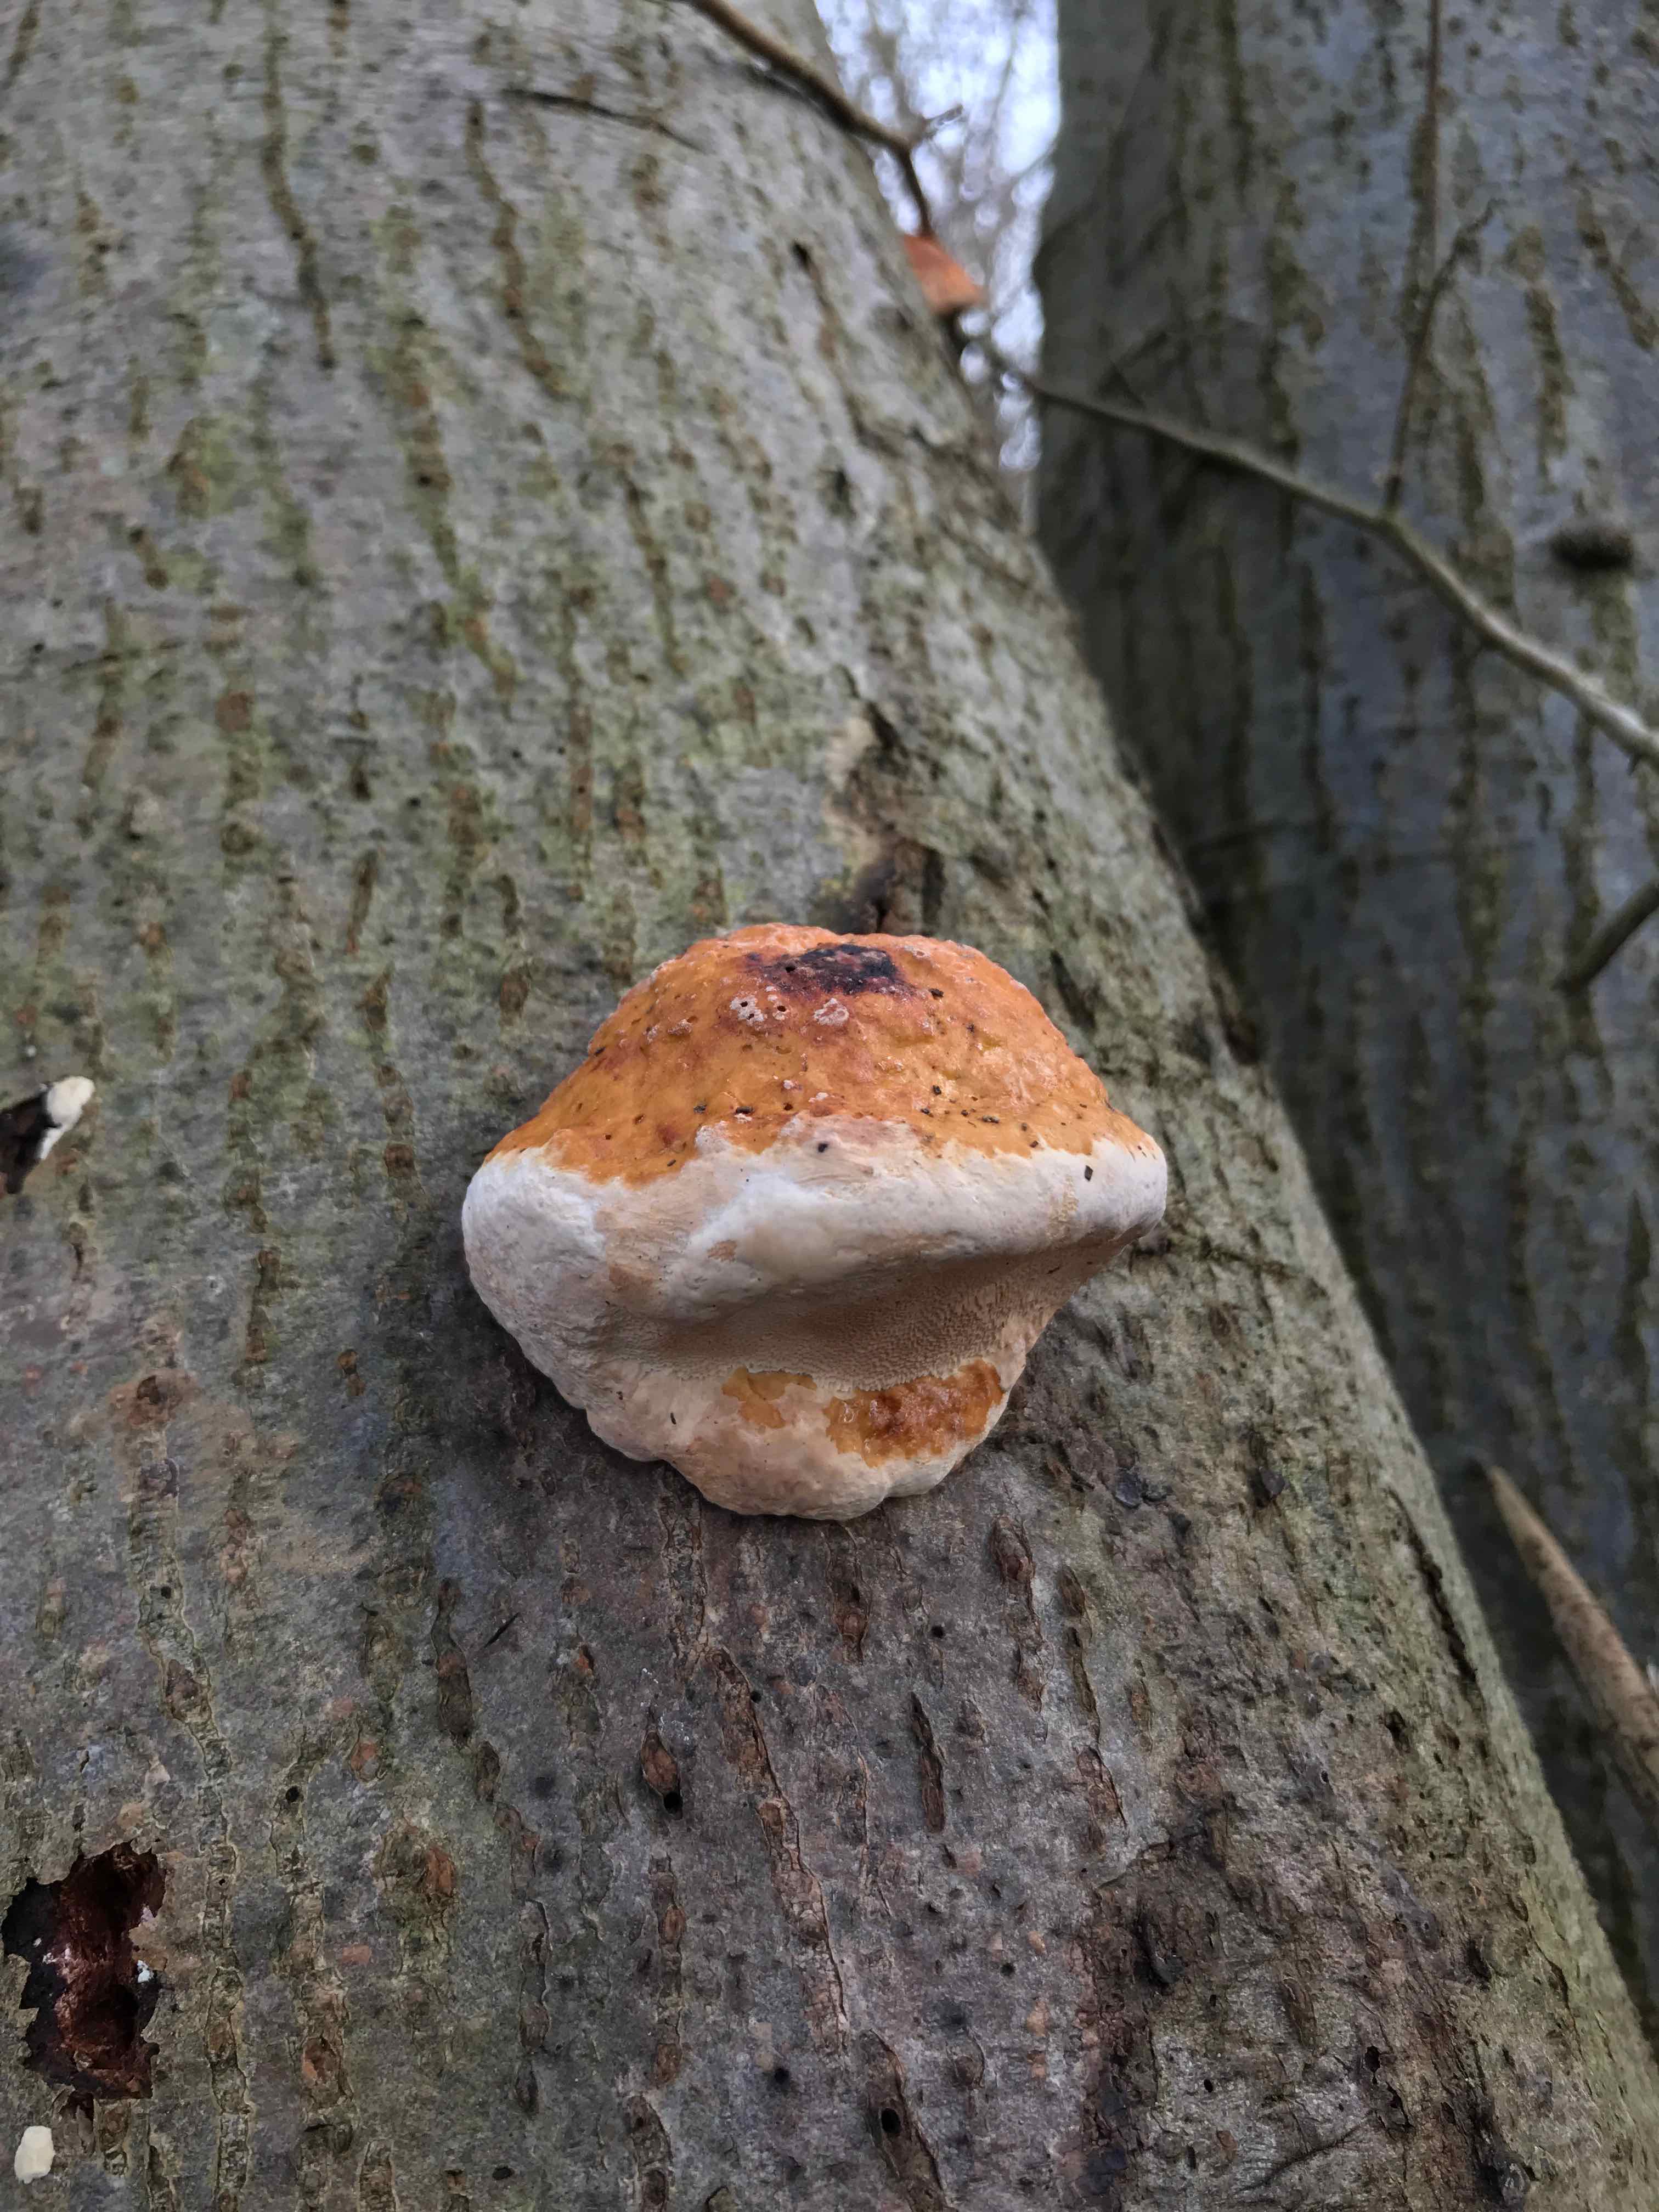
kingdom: Fungi
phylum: Basidiomycota
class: Agaricomycetes
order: Polyporales
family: Fomitopsidaceae
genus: Fomitopsis
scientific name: Fomitopsis pinicola
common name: randbæltet hovporesvamp
